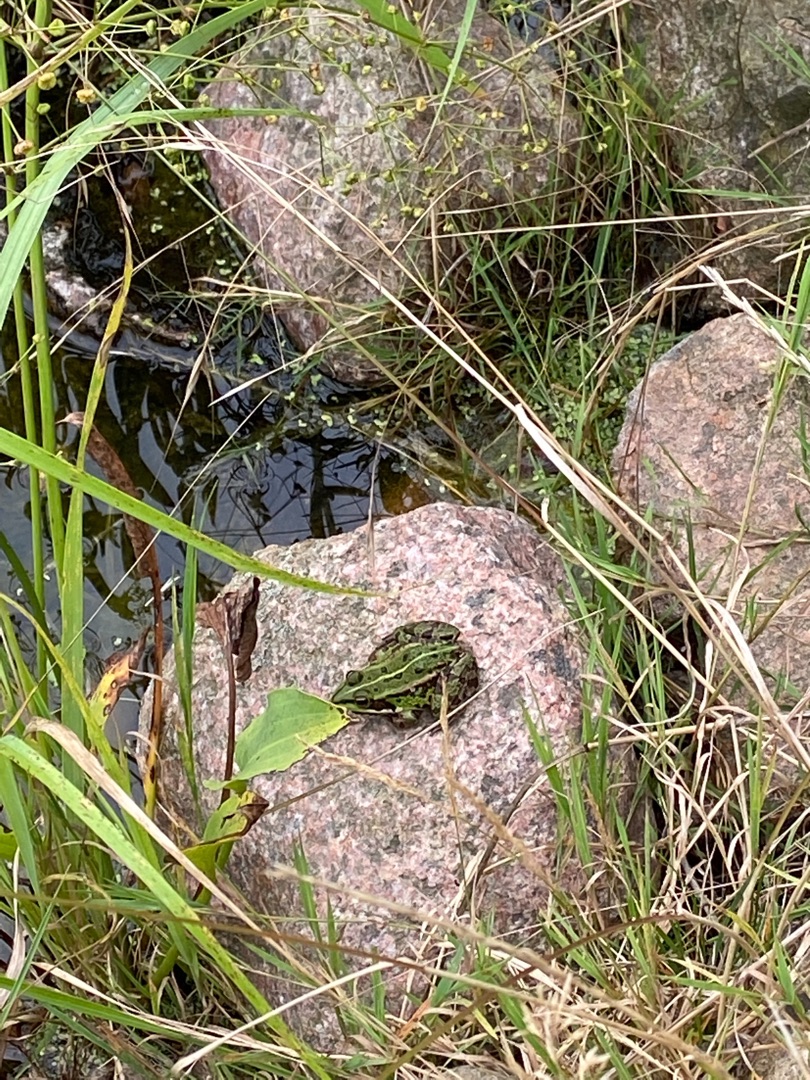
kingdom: Animalia
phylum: Chordata
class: Amphibia
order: Anura
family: Ranidae
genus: Pelophylax
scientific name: Pelophylax lessonae
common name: Grøn frø
